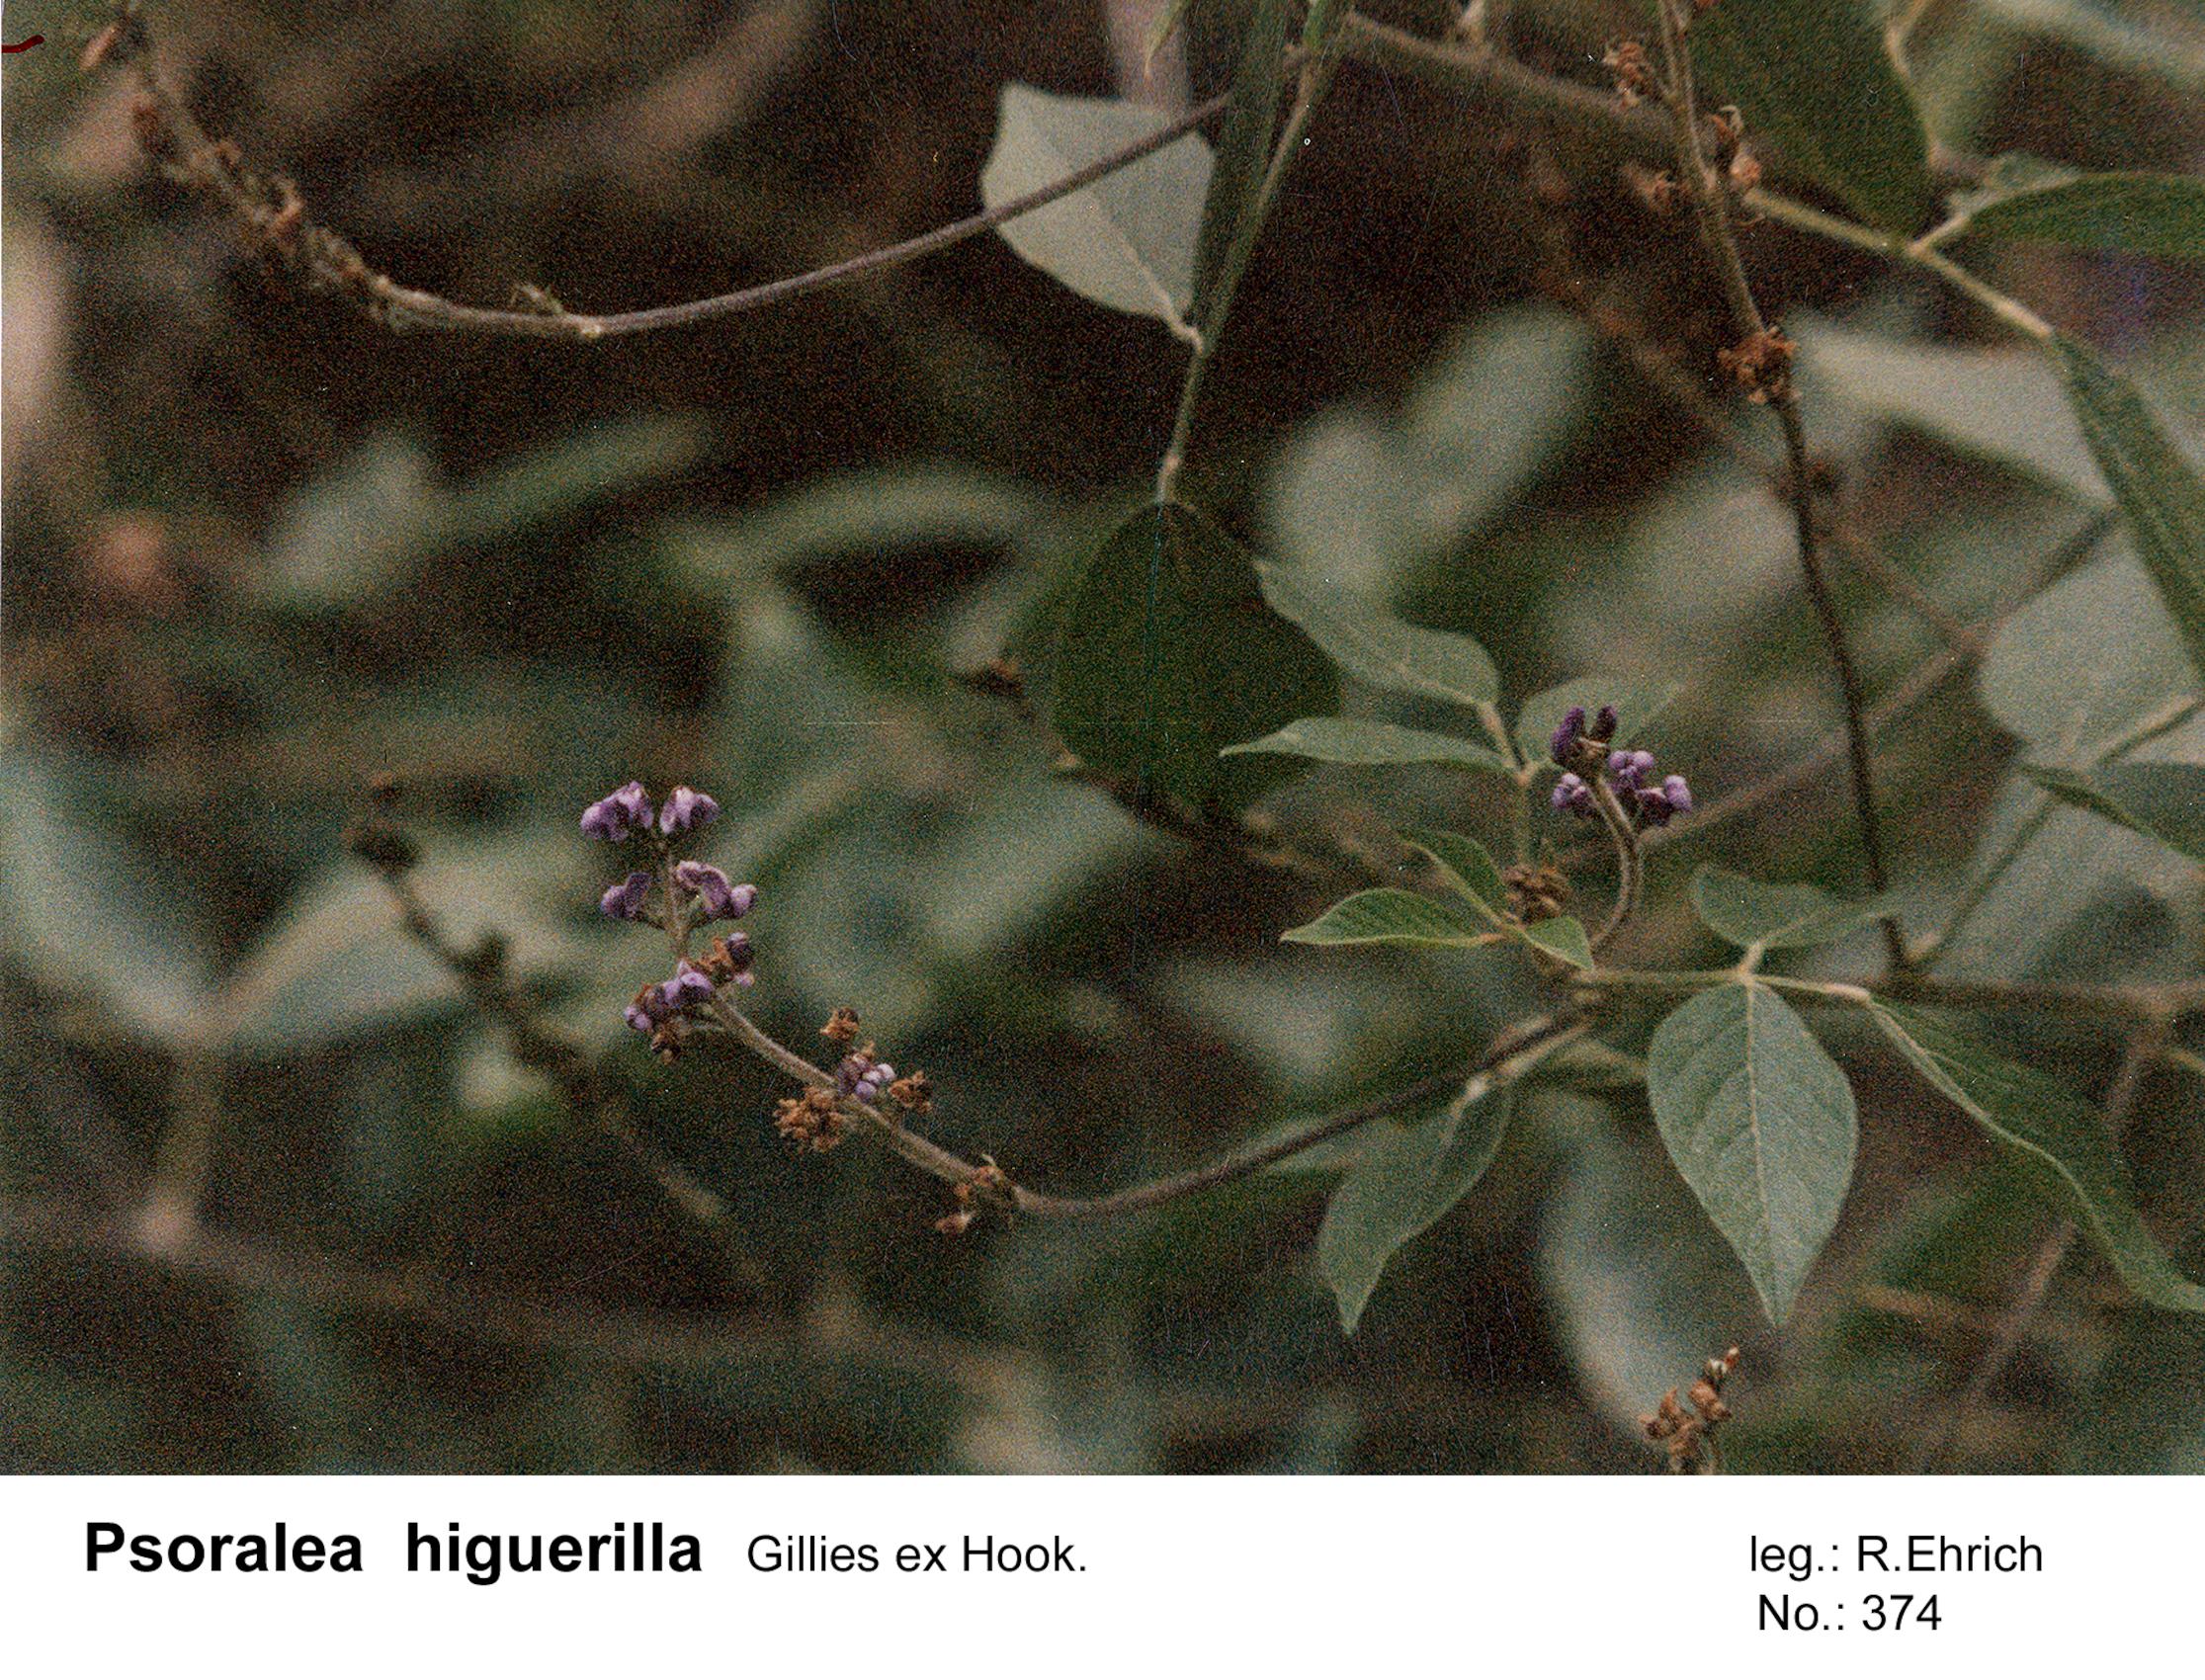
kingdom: Plantae
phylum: Tracheophyta
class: Magnoliopsida
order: Fabales
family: Fabaceae
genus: Psoralea
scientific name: Psoralea Otholobium higuerilla
